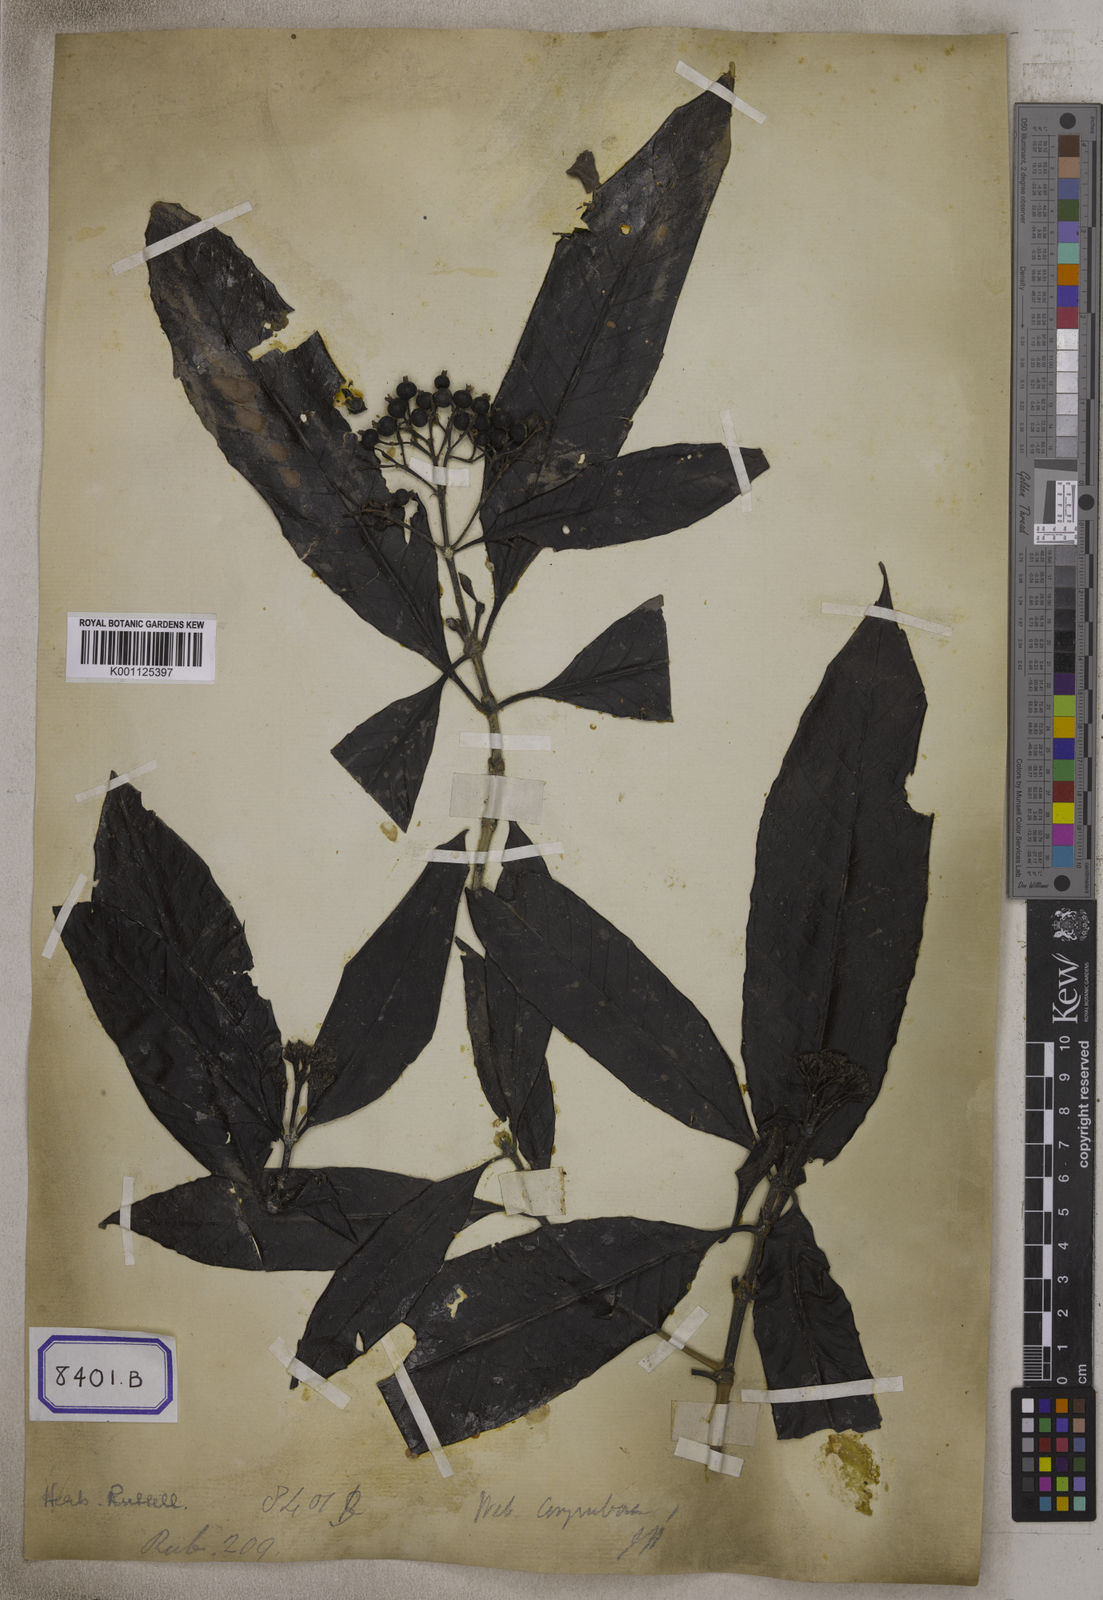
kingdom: Plantae
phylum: Tracheophyta
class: Magnoliopsida
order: Gentianales
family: Rubiaceae
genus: Tarenna
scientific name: Tarenna asiatica
